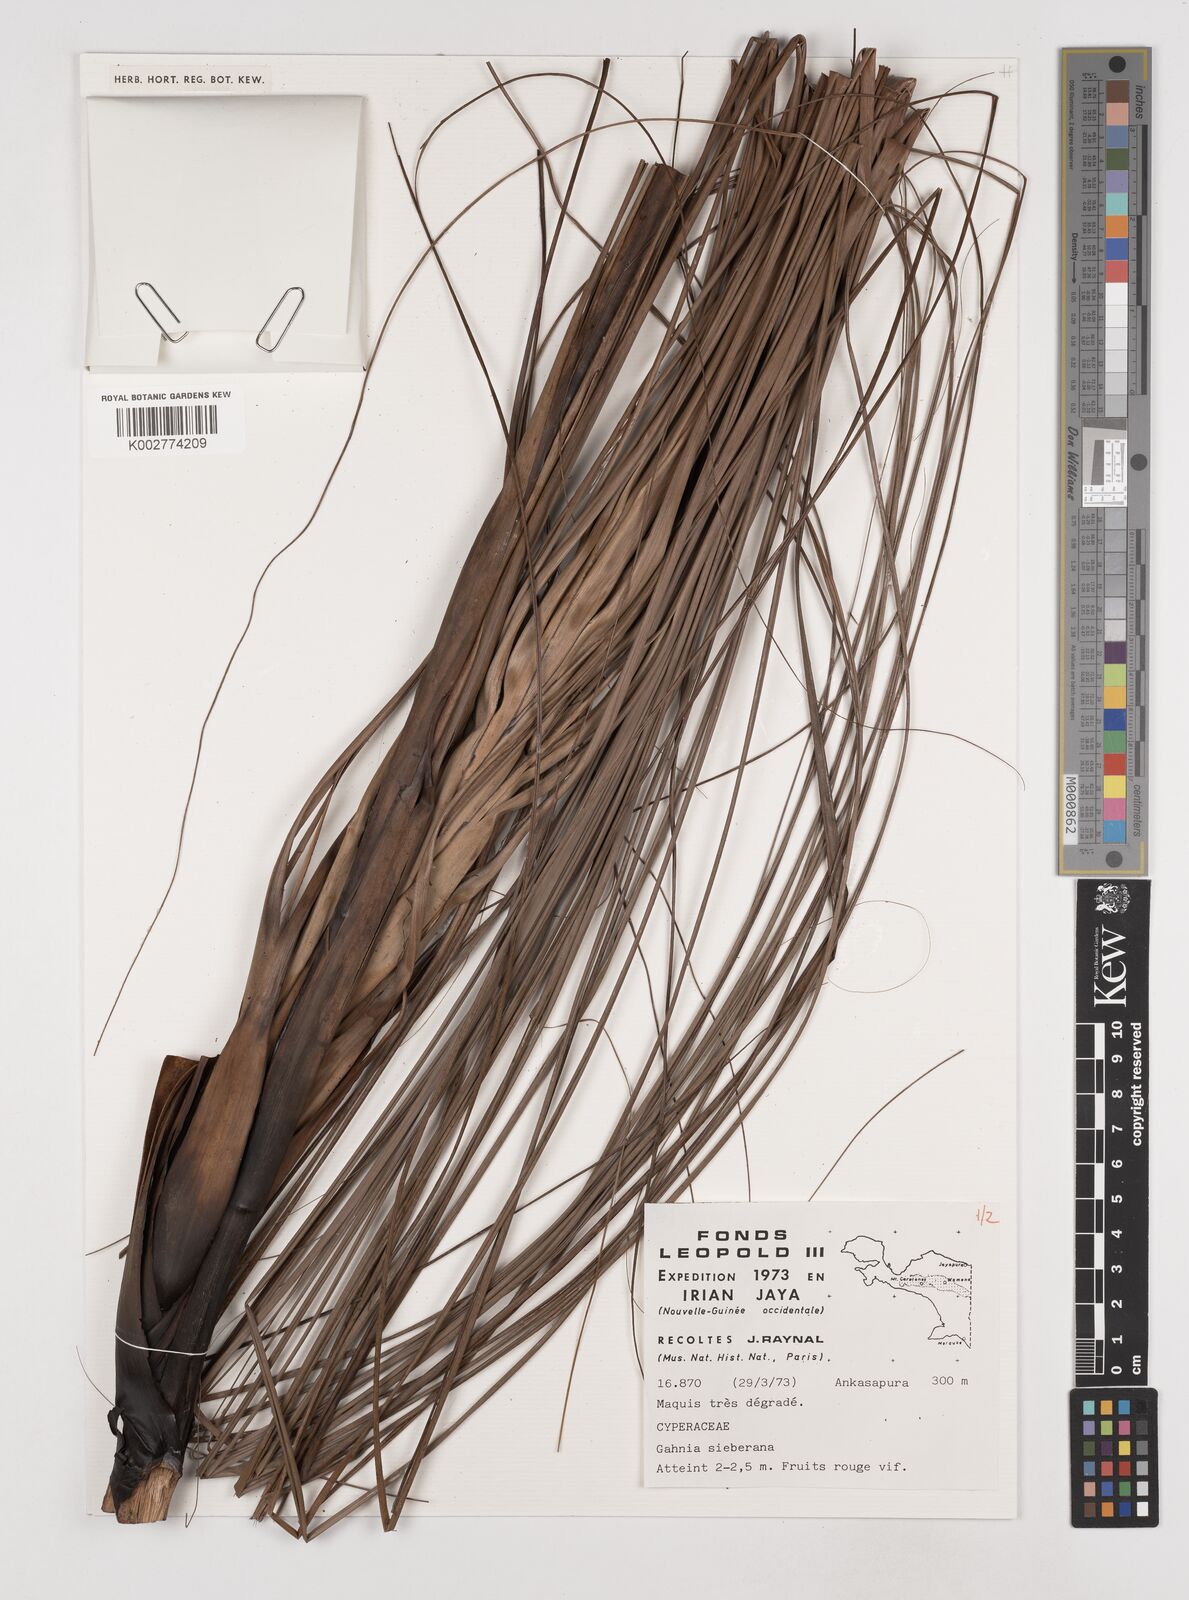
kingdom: Plantae
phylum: Tracheophyta
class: Liliopsida
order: Poales
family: Cyperaceae
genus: Gahnia
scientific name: Gahnia sieberiana
